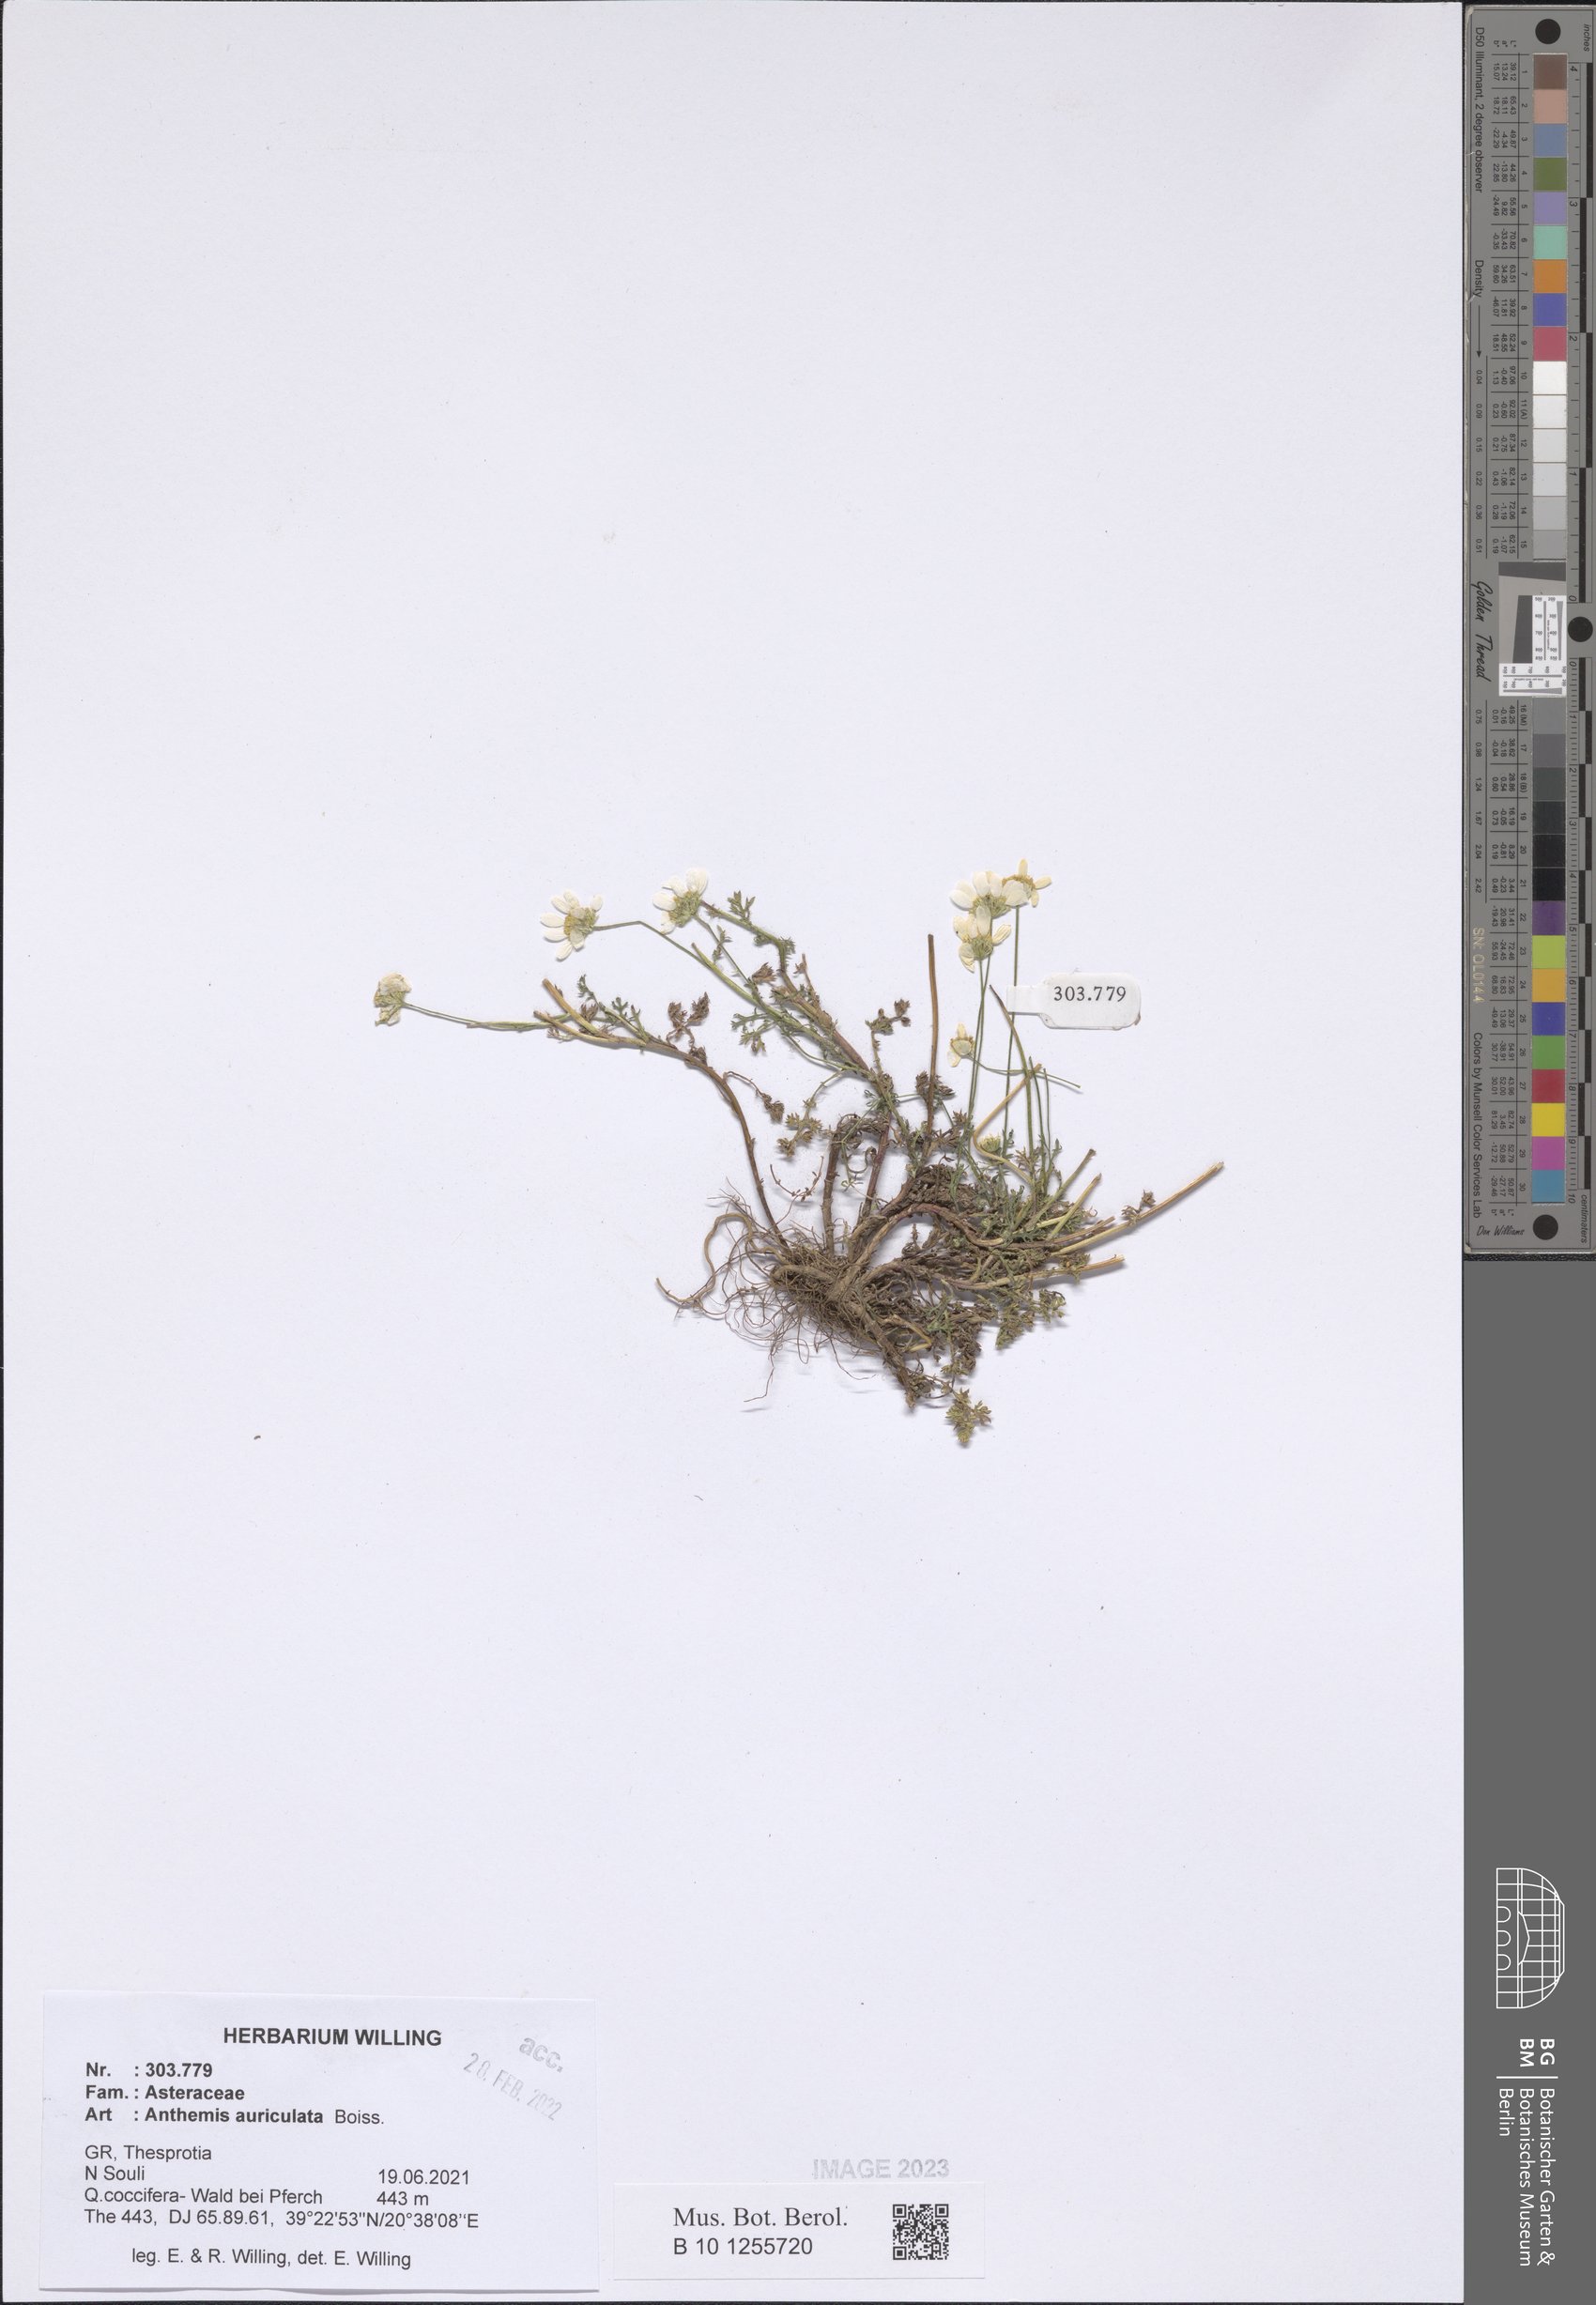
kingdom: Plantae
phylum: Tracheophyta
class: Magnoliopsida
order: Asterales
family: Asteraceae
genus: Anthemis
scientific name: Anthemis auriculata
